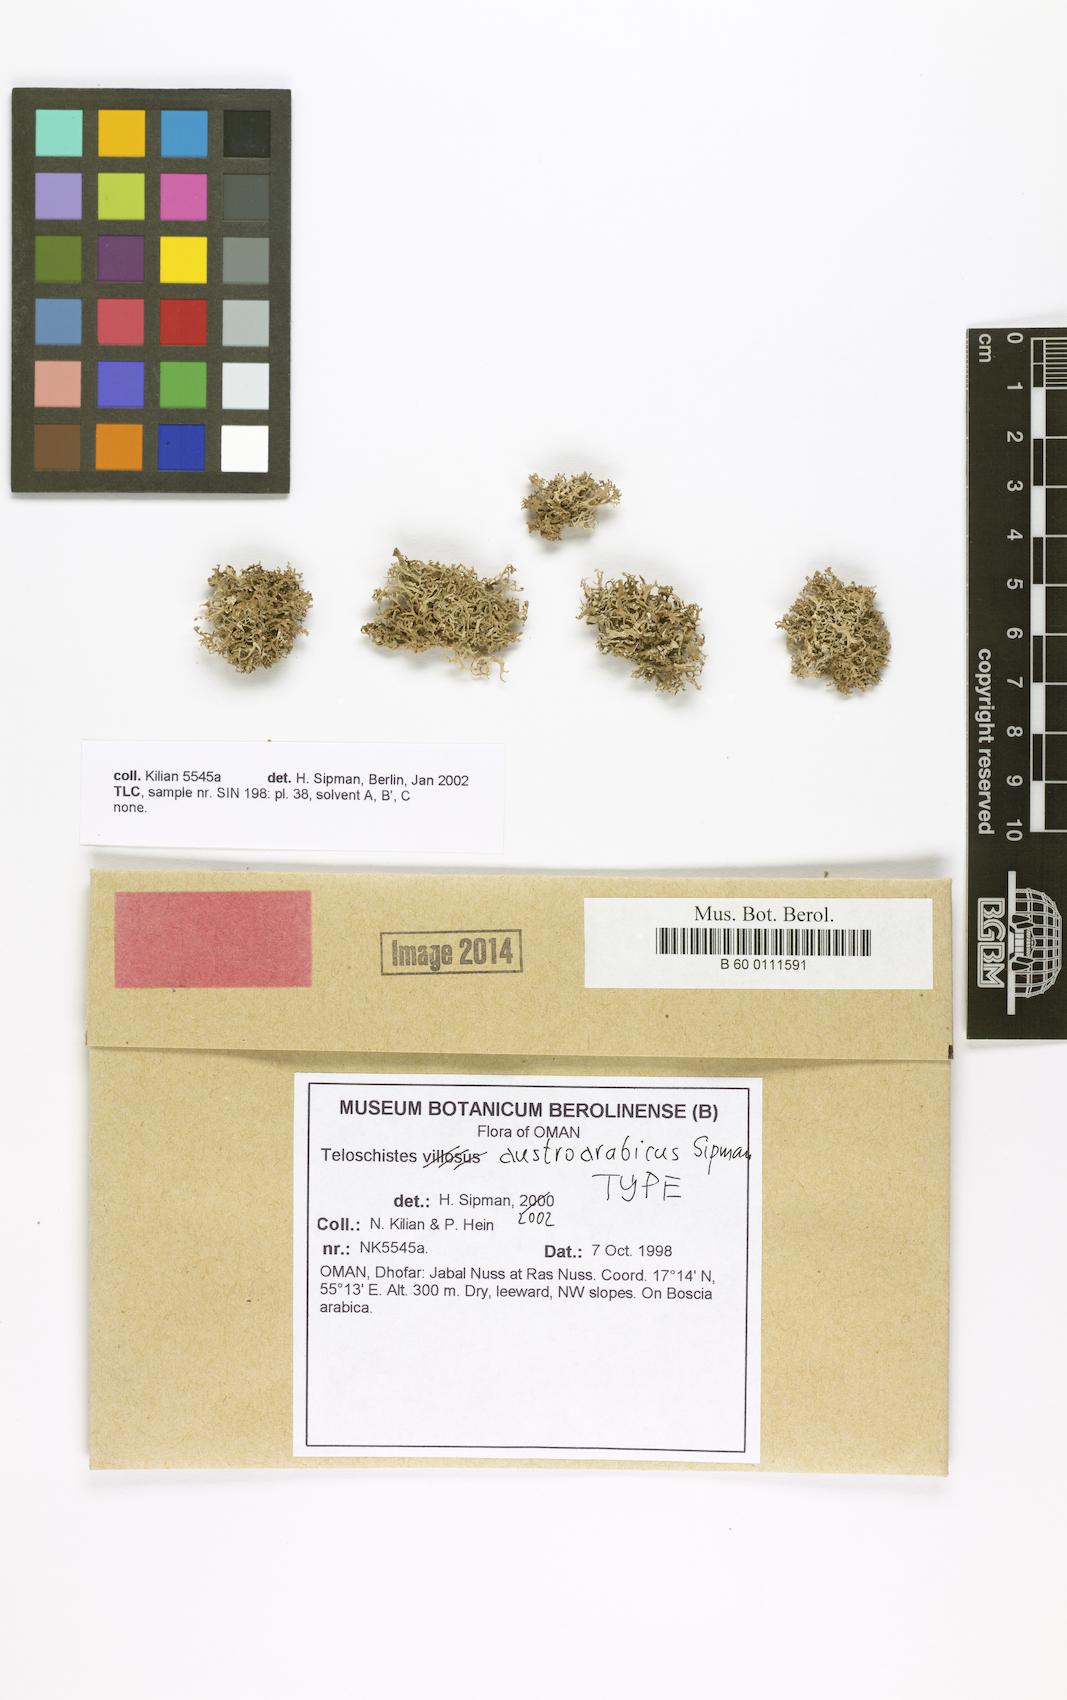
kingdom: Fungi
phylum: Ascomycota
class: Lecanoromycetes
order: Teloschistales
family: Teloschistaceae
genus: Seirophora
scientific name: Seirophora austroarabica
